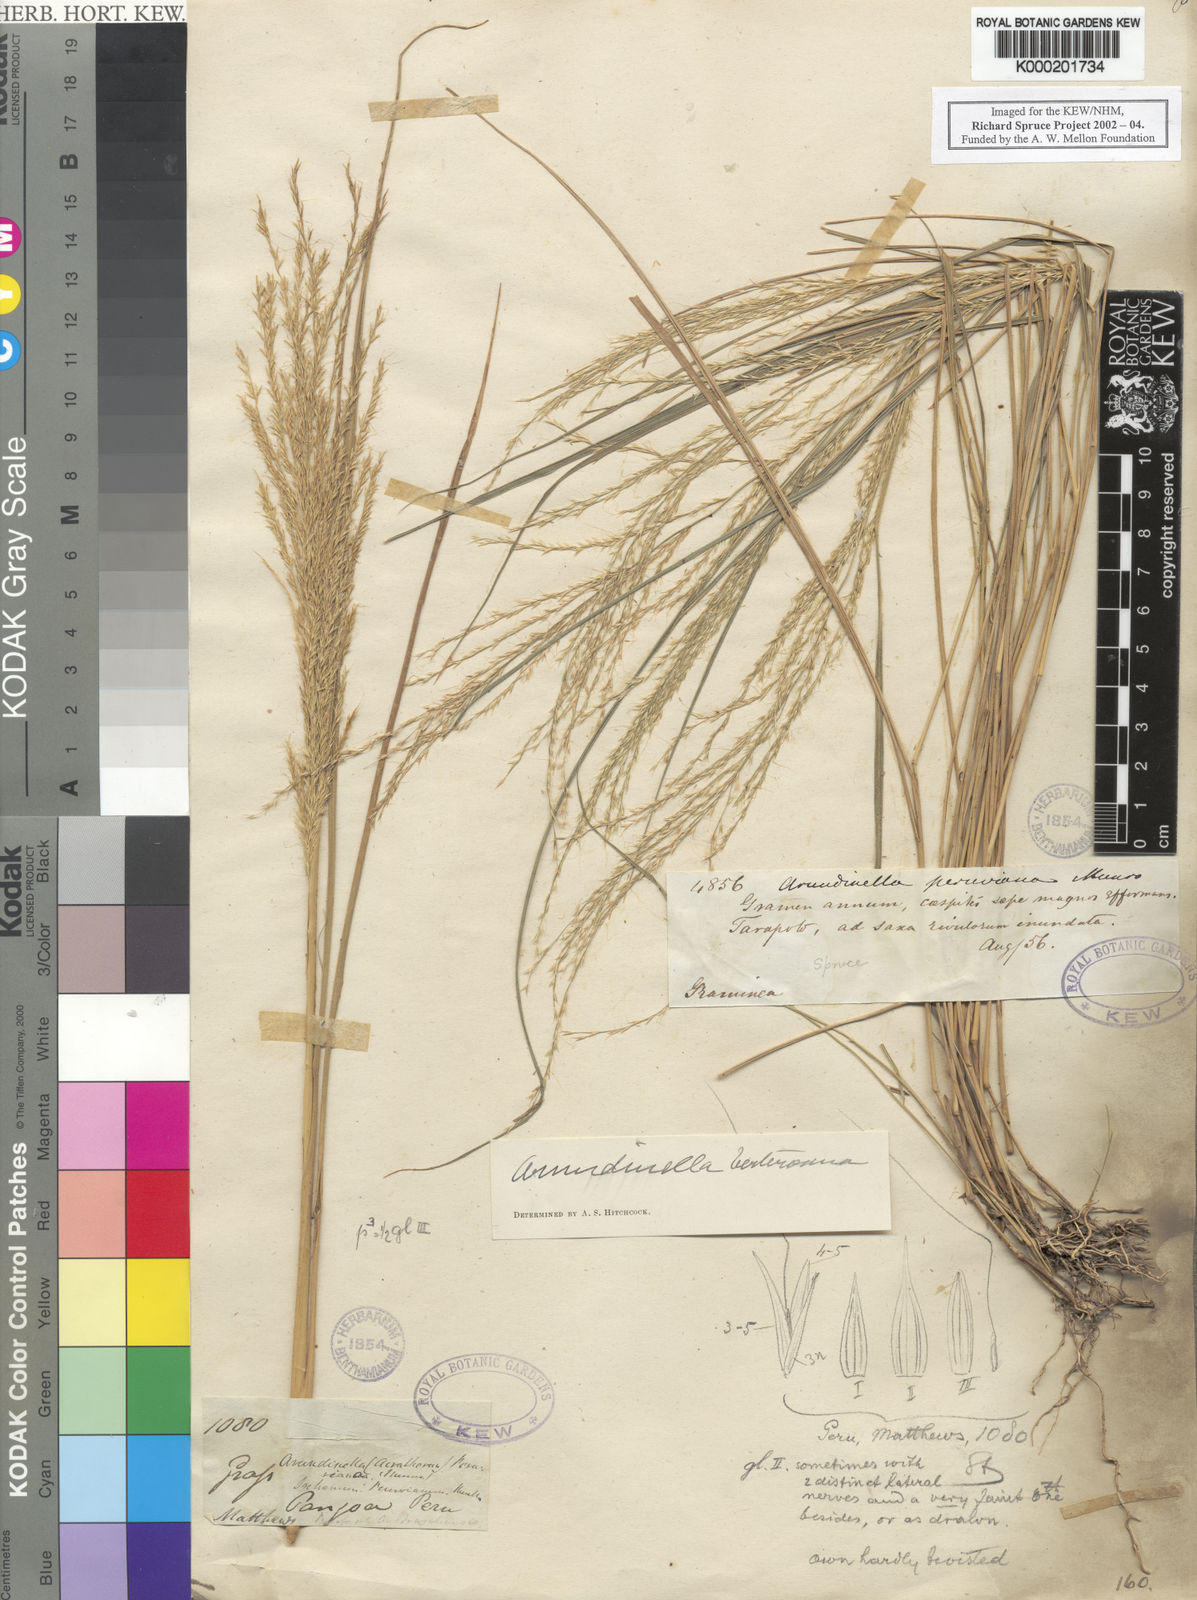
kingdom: Plantae
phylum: Tracheophyta
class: Liliopsida
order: Poales
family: Poaceae
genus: Arundinella
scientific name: Arundinella berteroniana
